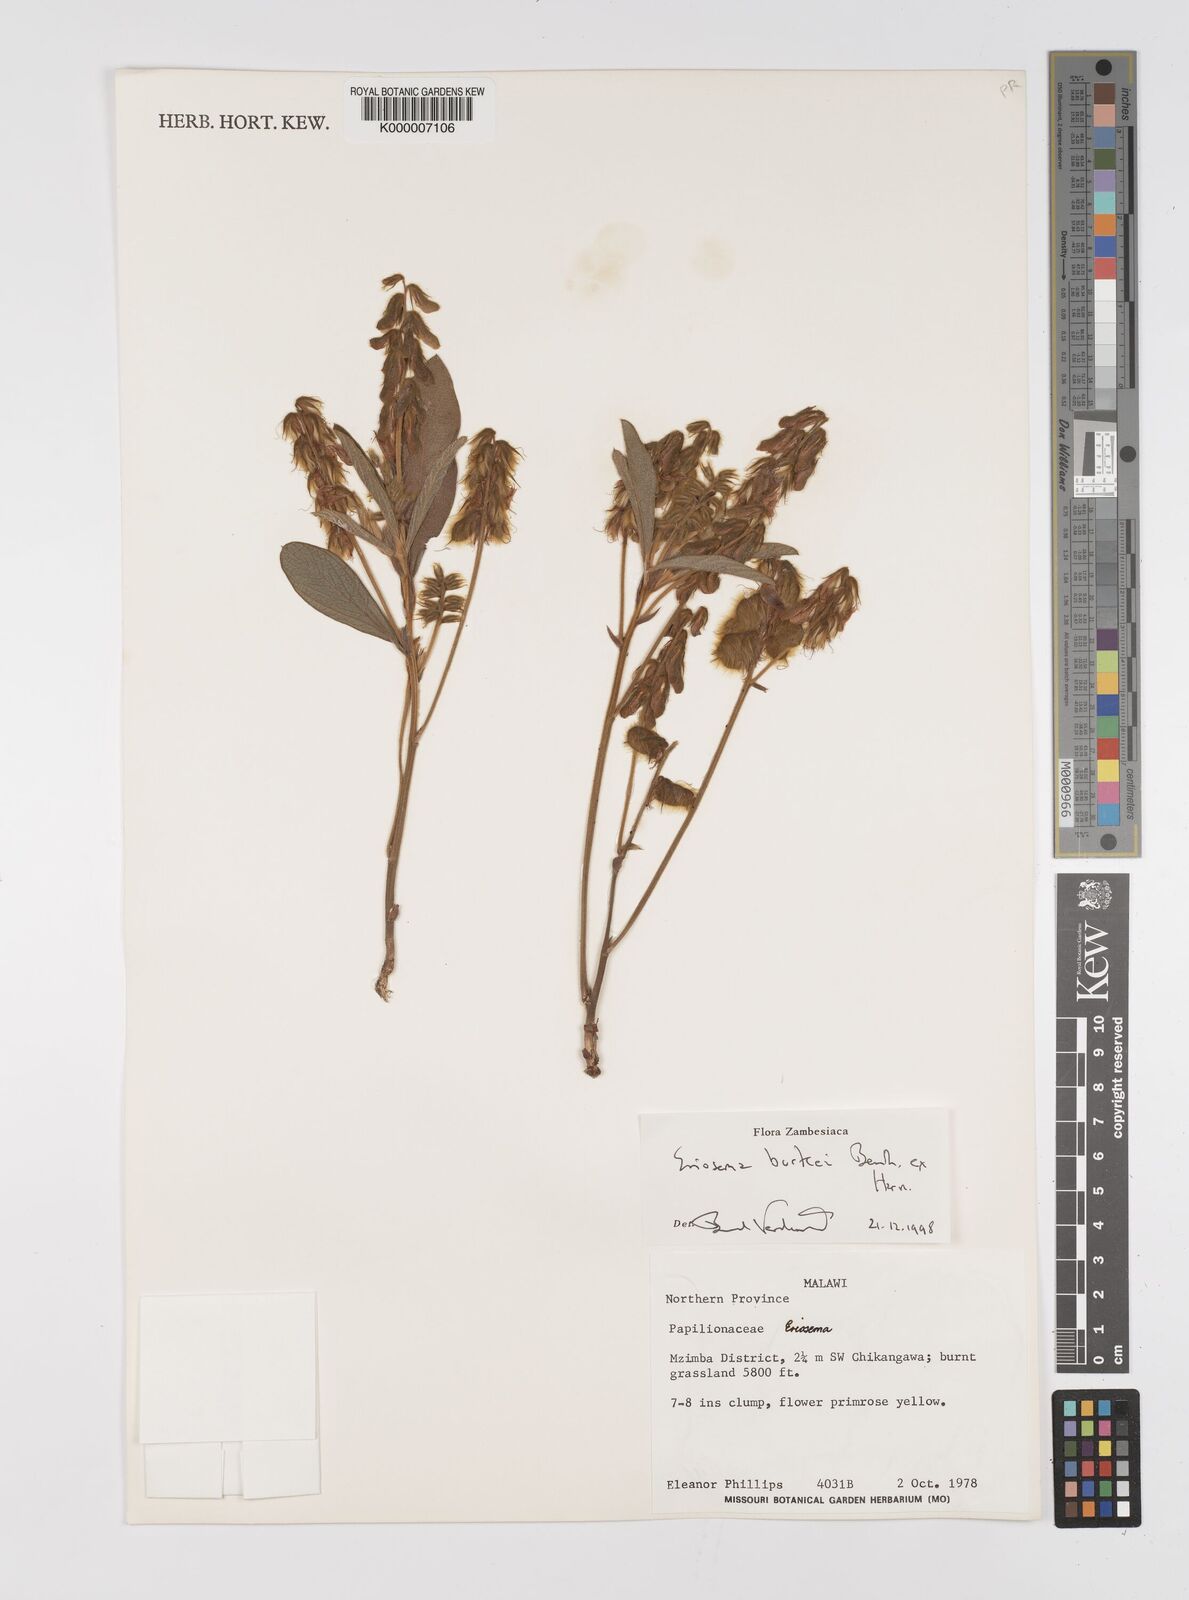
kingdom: Plantae
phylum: Tracheophyta
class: Magnoliopsida
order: Fabales
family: Fabaceae
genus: Eriosema
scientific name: Eriosema burkei
